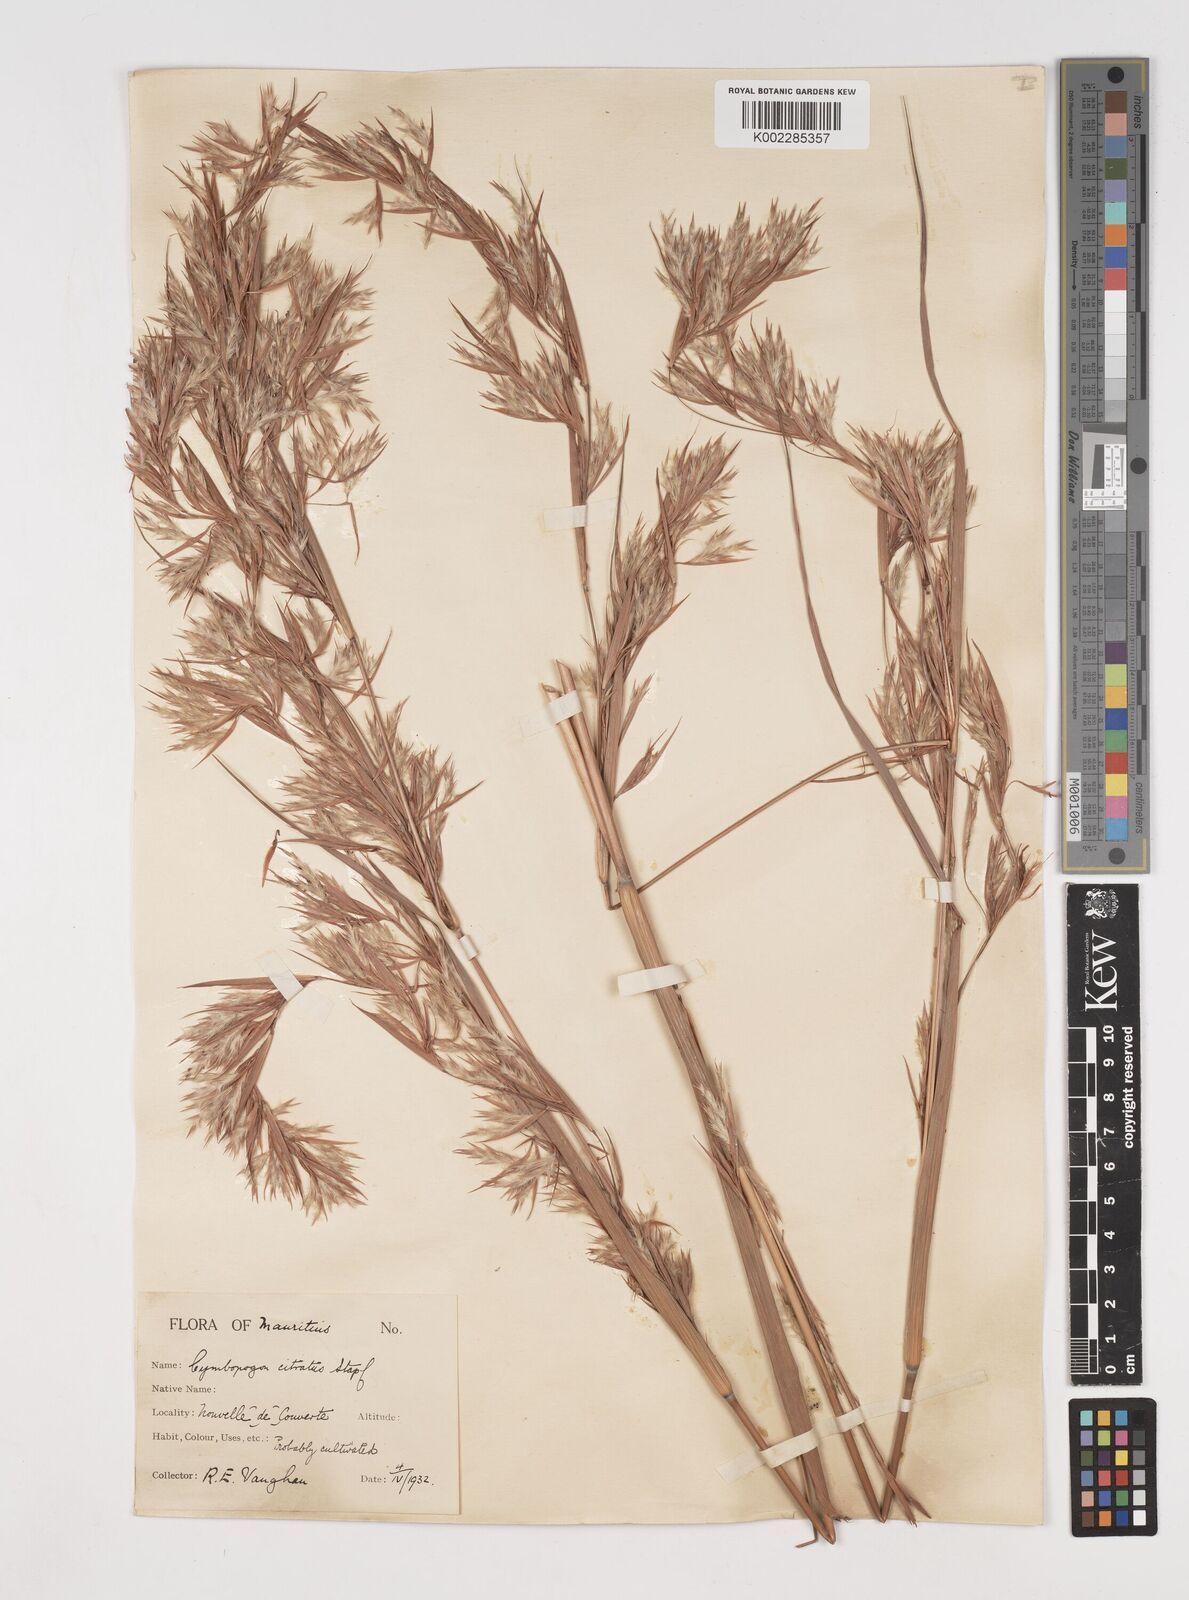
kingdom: Plantae
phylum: Tracheophyta
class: Liliopsida
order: Poales
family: Poaceae
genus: Cymbopogon
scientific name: Cymbopogon citratus
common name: Lemon grass
